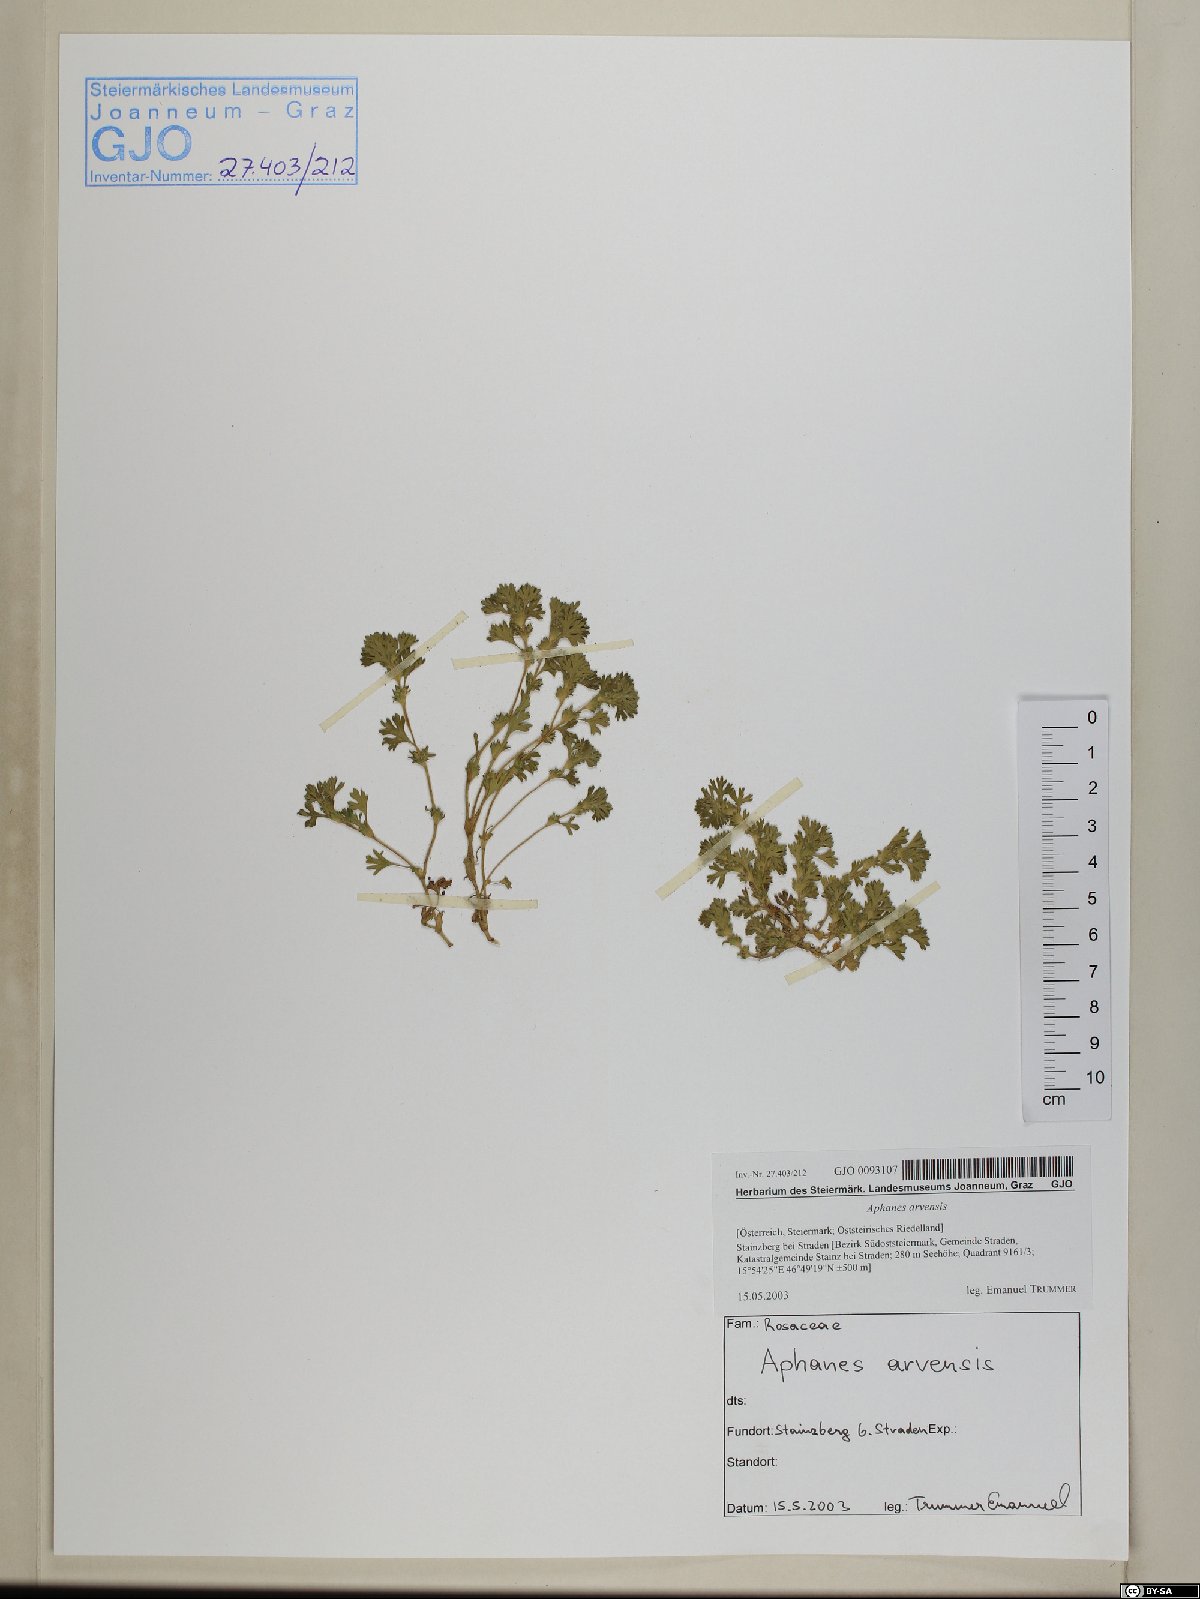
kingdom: Plantae
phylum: Tracheophyta
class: Magnoliopsida
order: Rosales
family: Rosaceae
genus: Aphanes
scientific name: Aphanes arvensis
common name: Parsley-piert
